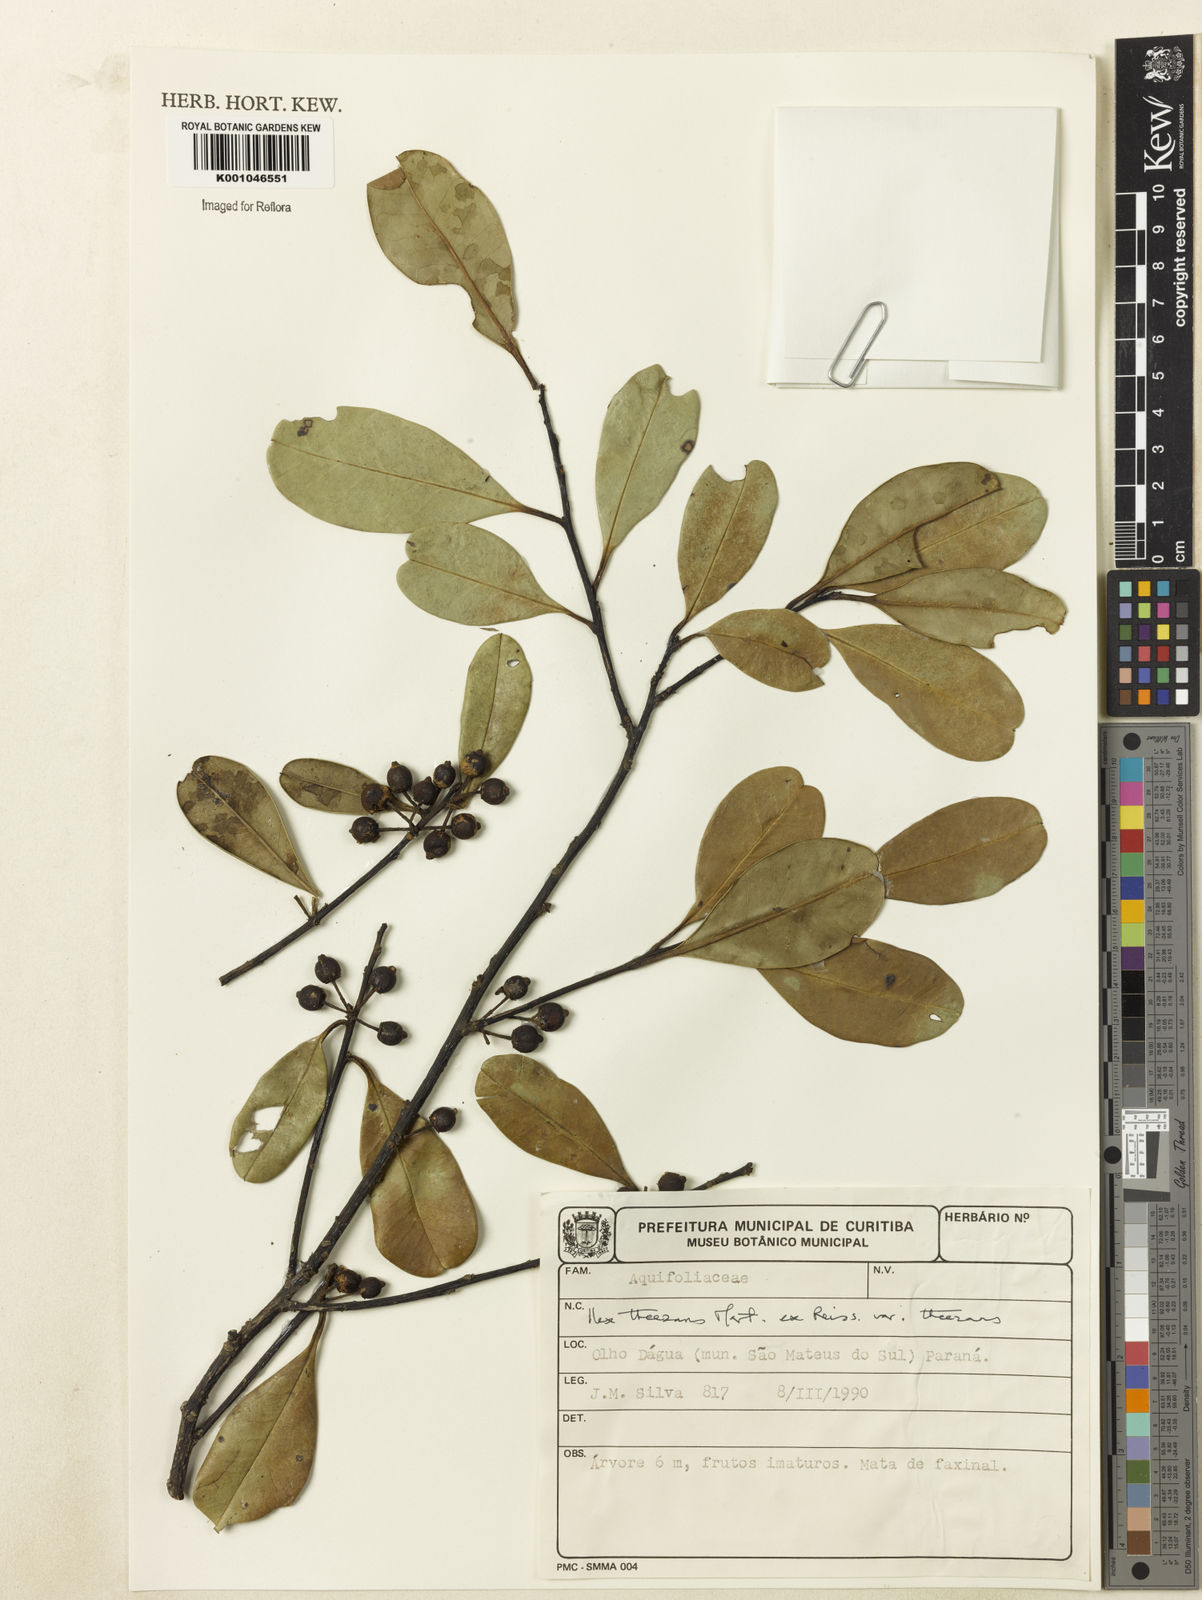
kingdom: Plantae
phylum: Tracheophyta
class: Magnoliopsida
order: Aquifoliales
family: Aquifoliaceae
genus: Ilex
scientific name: Ilex theezans
